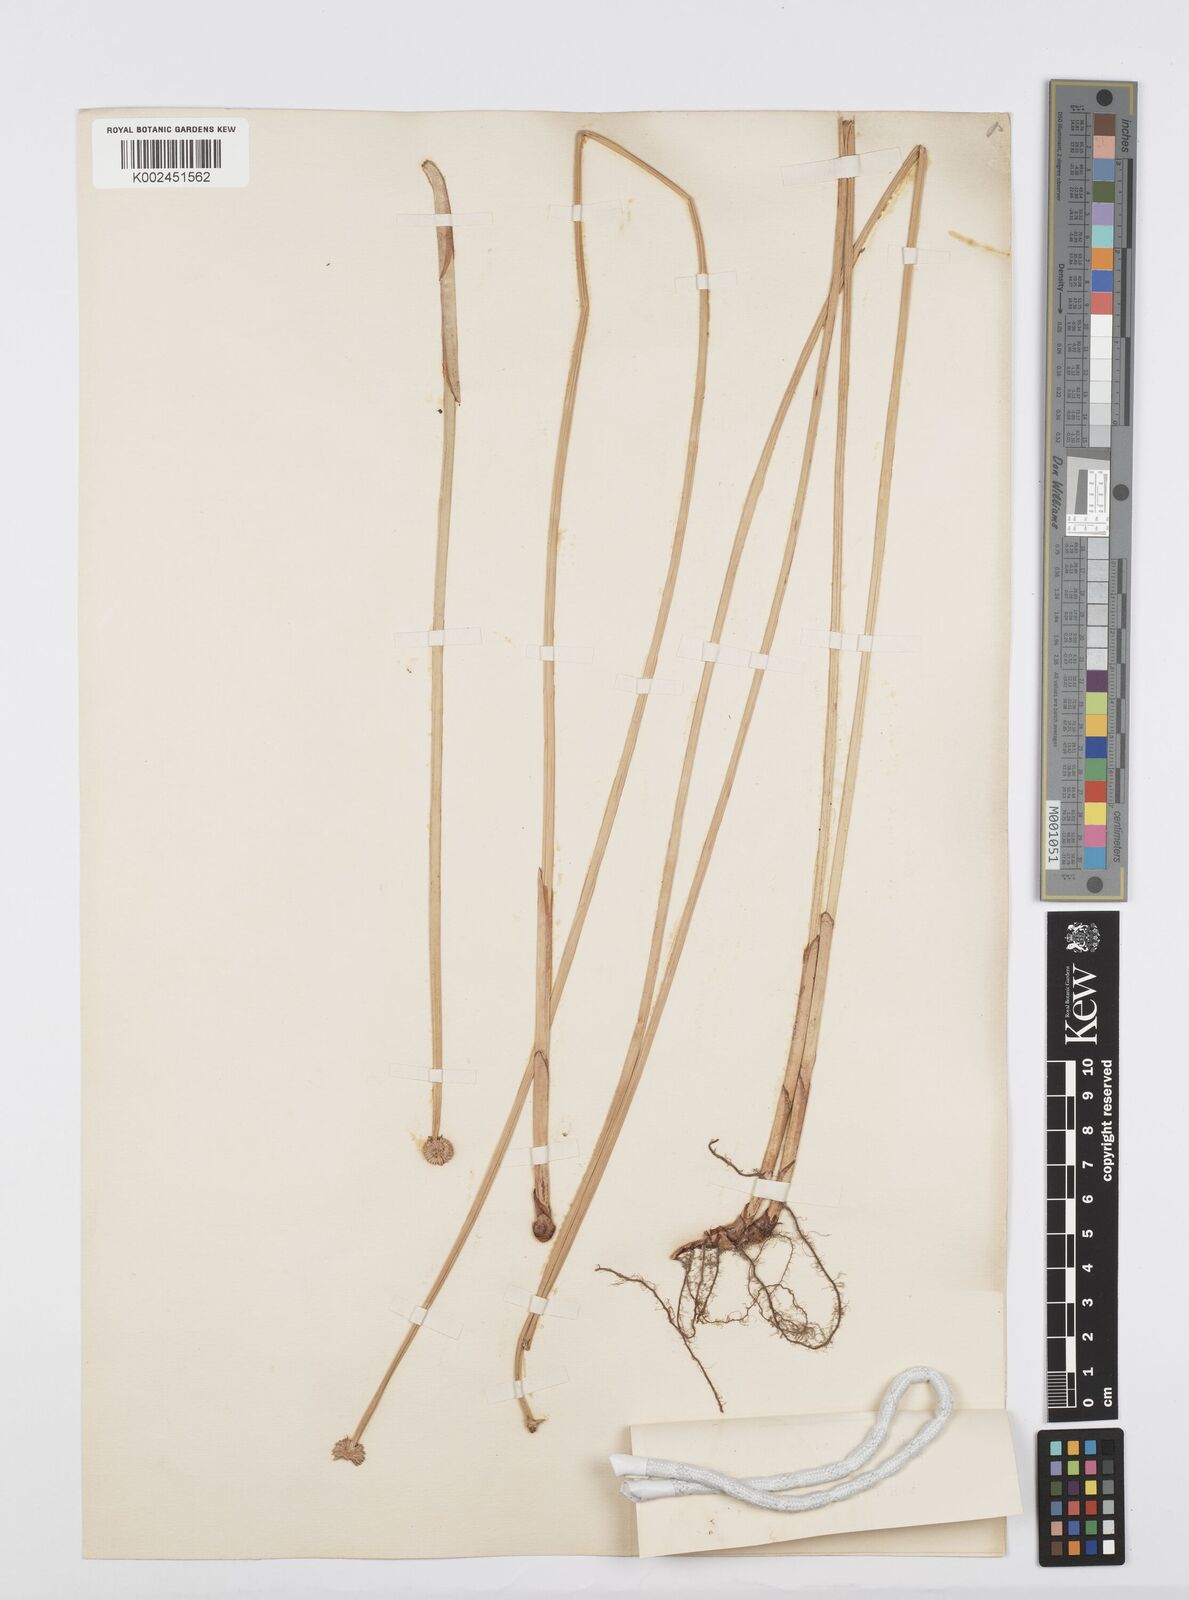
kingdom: Plantae
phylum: Tracheophyta
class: Liliopsida
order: Poales
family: Cyperaceae
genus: Cyperus
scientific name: Cyperus obtusatus
